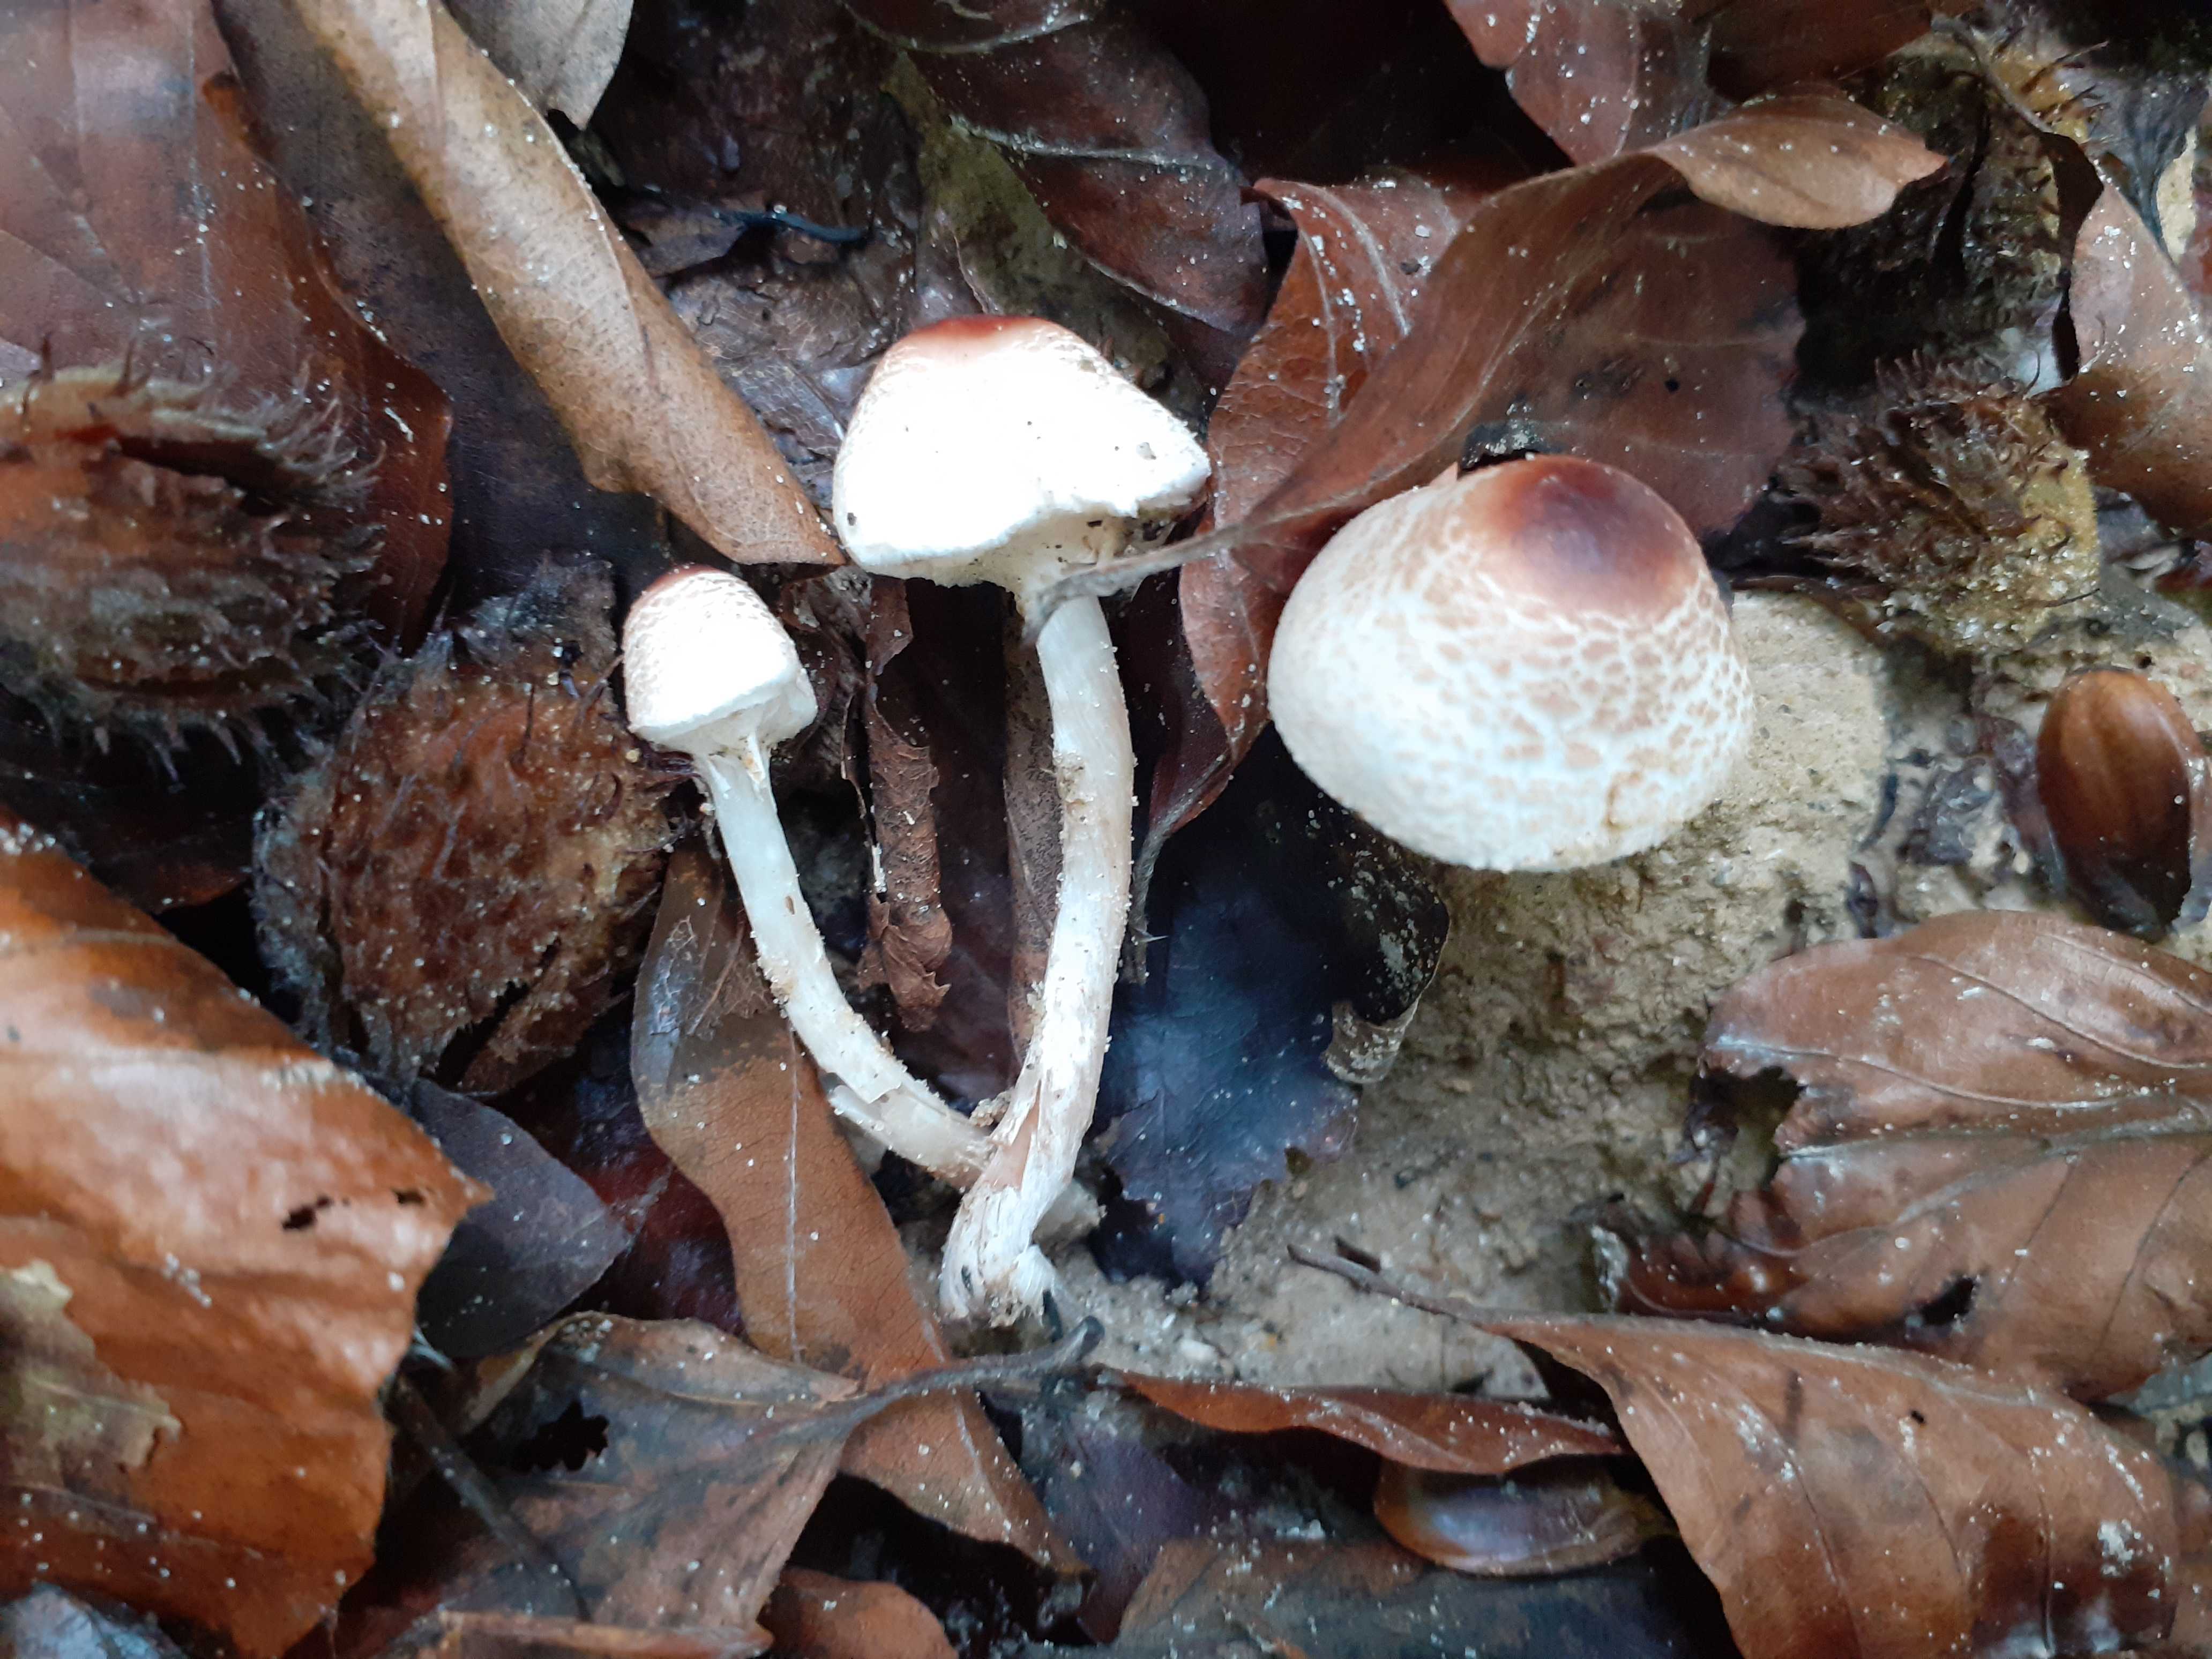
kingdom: Fungi
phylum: Basidiomycota
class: Agaricomycetes
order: Agaricales
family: Agaricaceae
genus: Lepiota
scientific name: Lepiota cristata
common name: stinkende parasolhat
